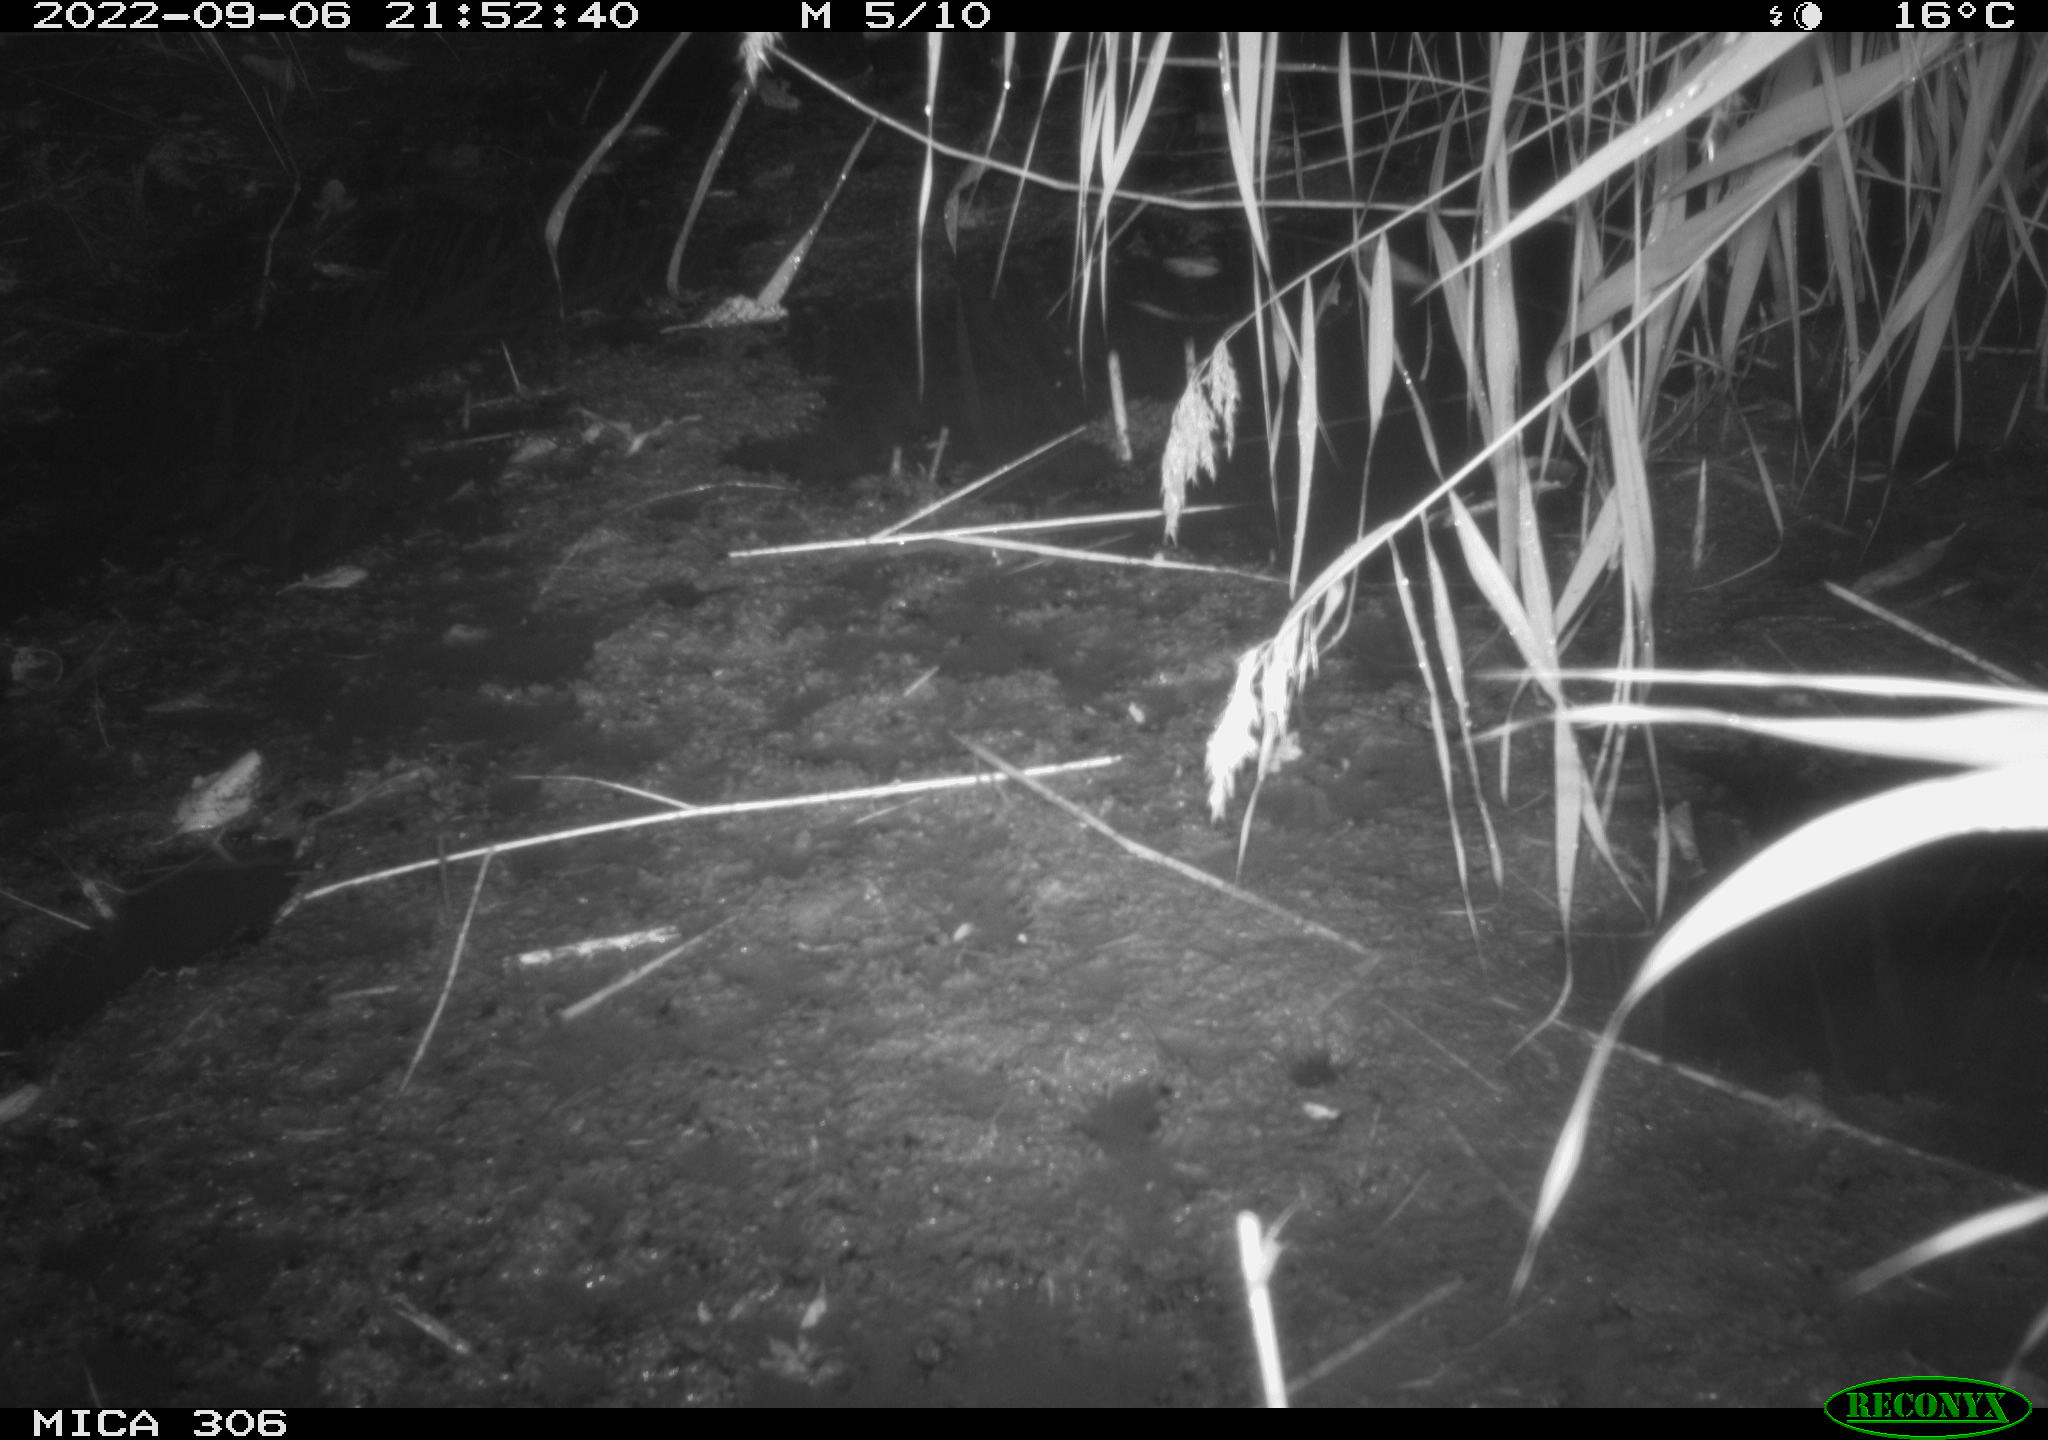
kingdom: Animalia
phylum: Chordata
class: Mammalia
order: Rodentia
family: Muridae
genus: Rattus
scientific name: Rattus norvegicus
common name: Brown rat
